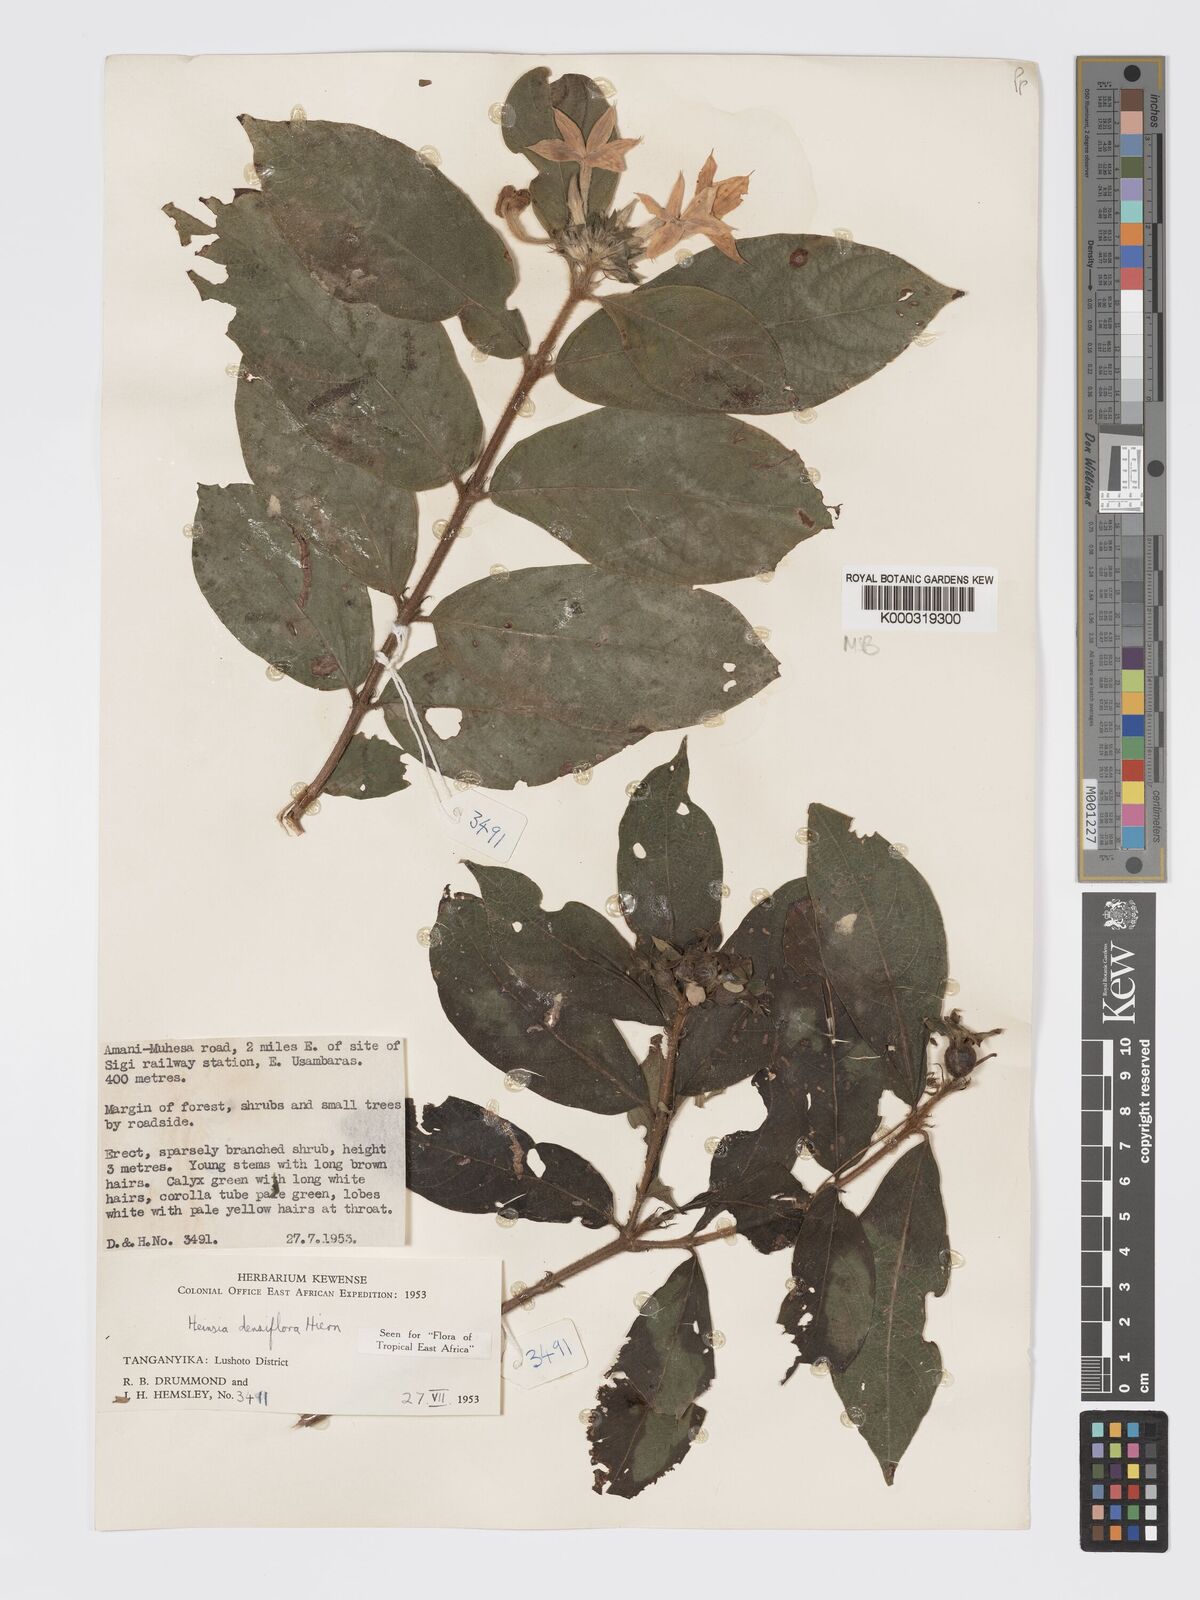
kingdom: Plantae
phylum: Tracheophyta
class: Magnoliopsida
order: Gentianales
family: Rubiaceae
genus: Heinsia
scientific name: Heinsia zanzibarica
